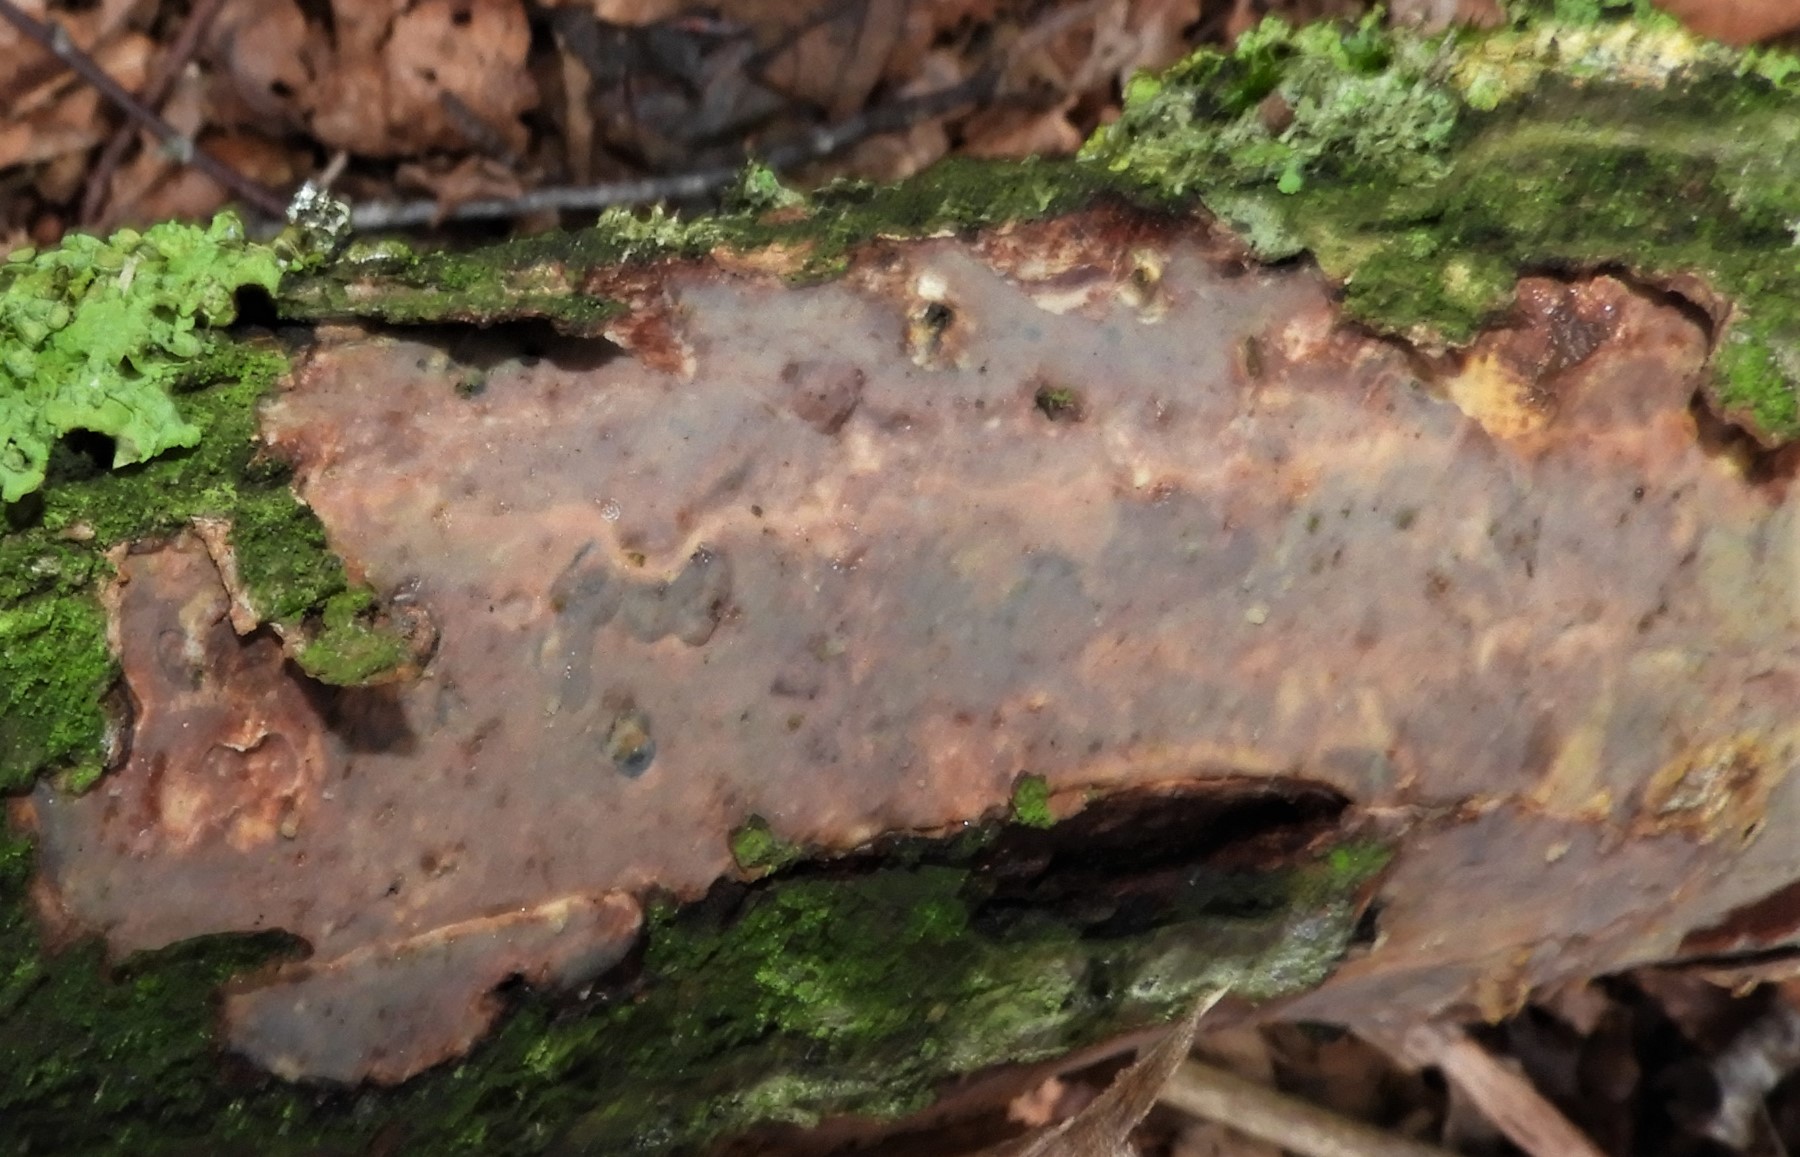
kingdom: Fungi
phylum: Basidiomycota
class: Agaricomycetes
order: Corticiales
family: Vuilleminiaceae
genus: Vuilleminia
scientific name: Vuilleminia comedens
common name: almindelig barksprænger
